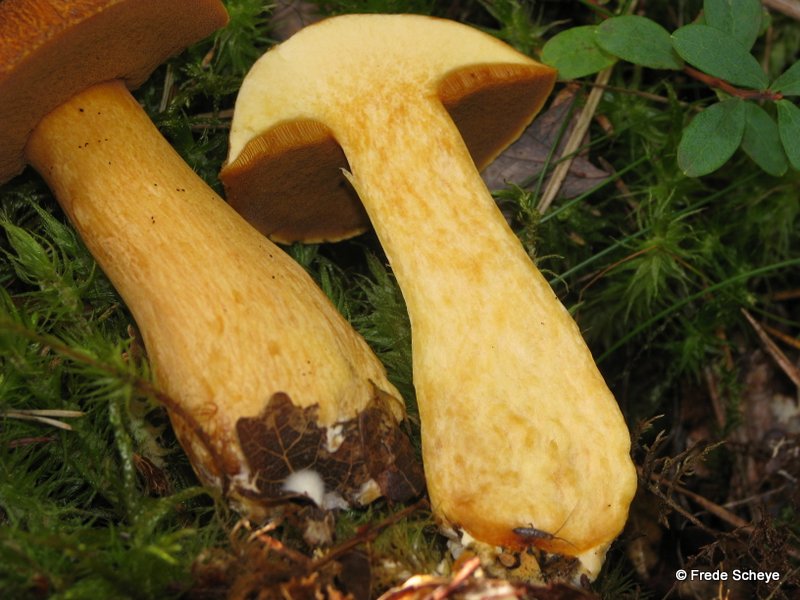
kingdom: Fungi
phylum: Basidiomycota
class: Agaricomycetes
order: Boletales
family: Suillaceae
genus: Suillus
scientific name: Suillus variegatus
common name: broget slimrørhat
